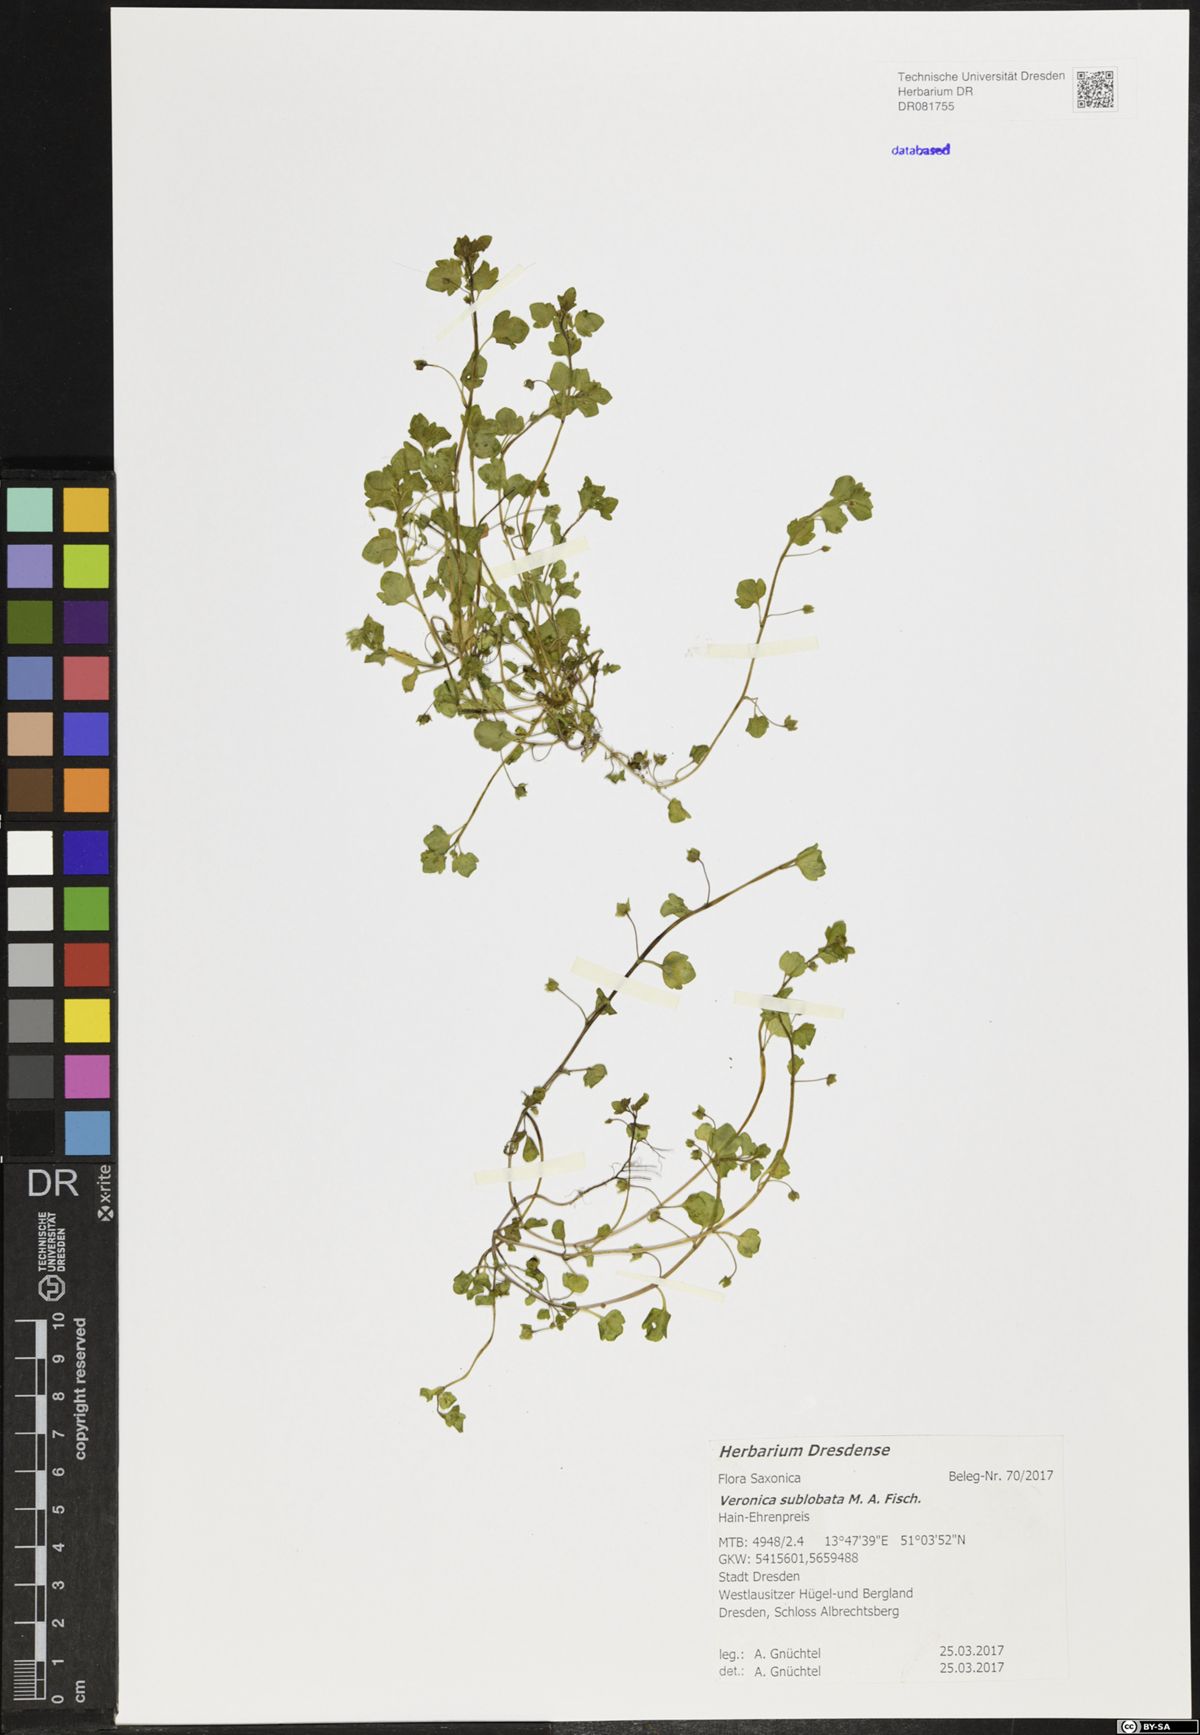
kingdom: Plantae
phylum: Tracheophyta
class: Magnoliopsida
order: Lamiales
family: Plantaginaceae
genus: Veronica
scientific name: Veronica sublobata
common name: False ivy-leaved speedwell
